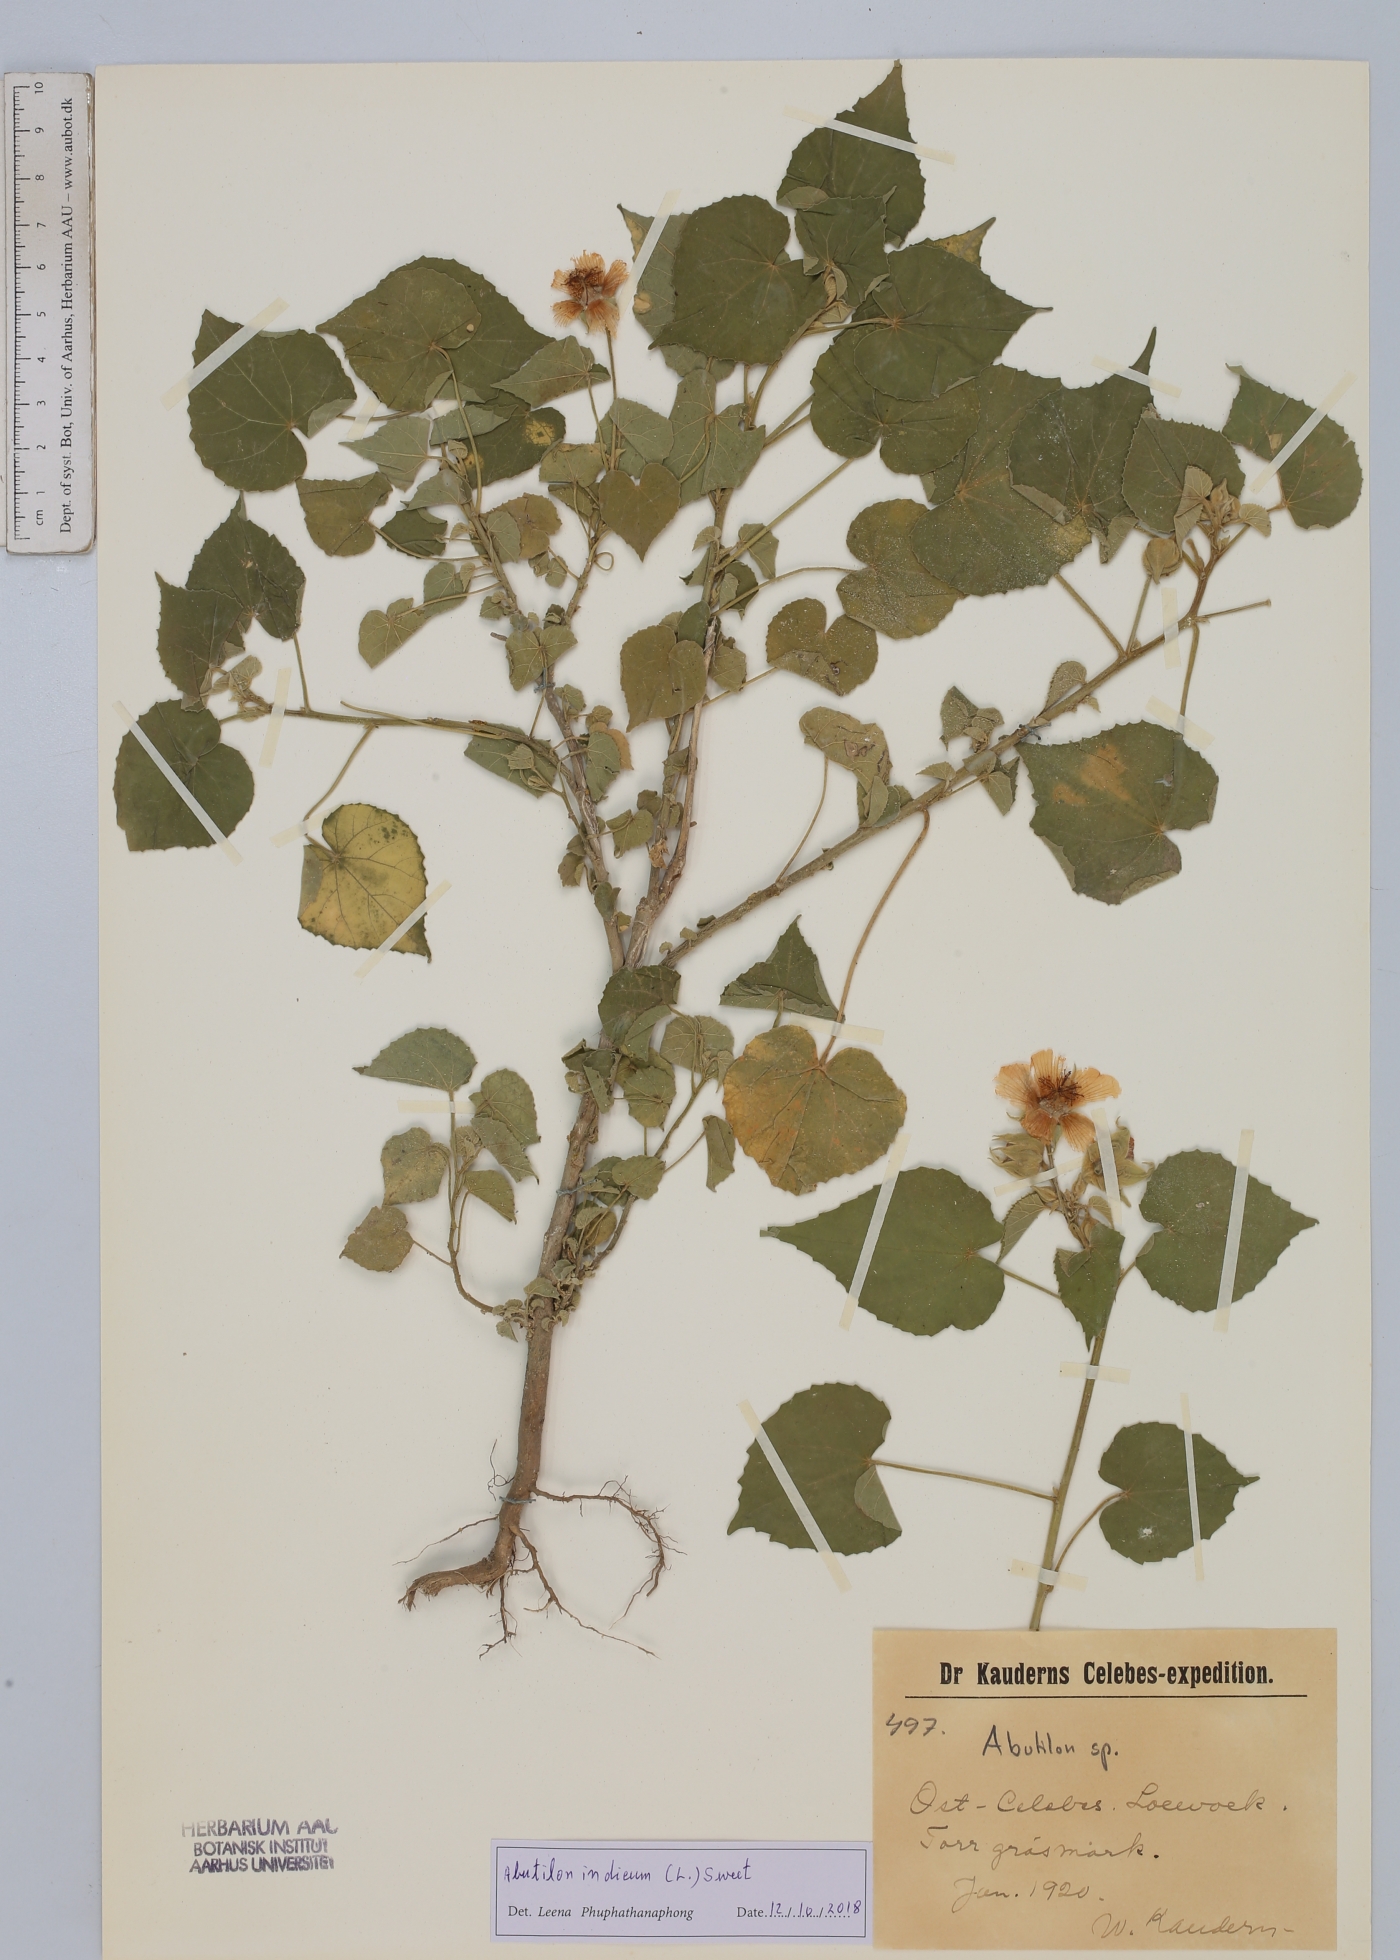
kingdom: Plantae
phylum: Tracheophyta
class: Magnoliopsida
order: Malvales
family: Malvaceae
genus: Abutilon
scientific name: Abutilon indicum
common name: Indian abutilon
